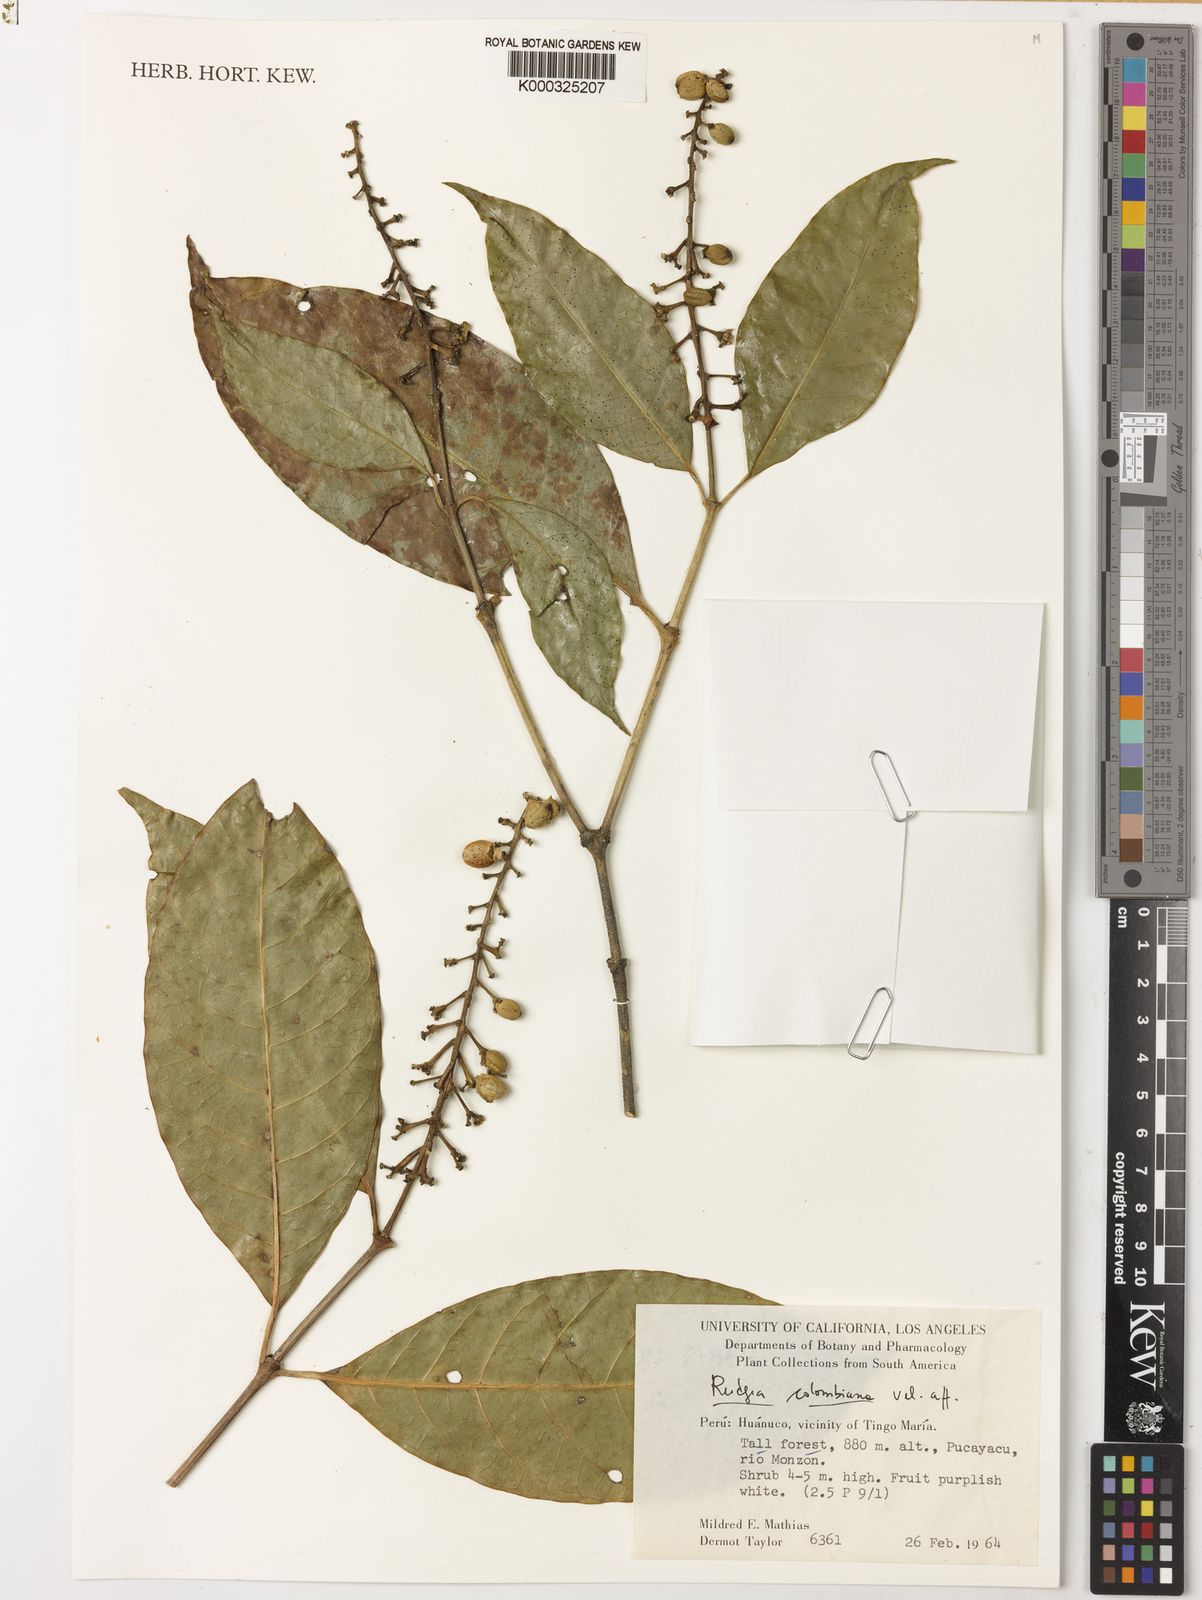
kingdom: Plantae
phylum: Tracheophyta
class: Magnoliopsida
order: Gentianales
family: Rubiaceae
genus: Rudgea
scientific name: Rudgea
